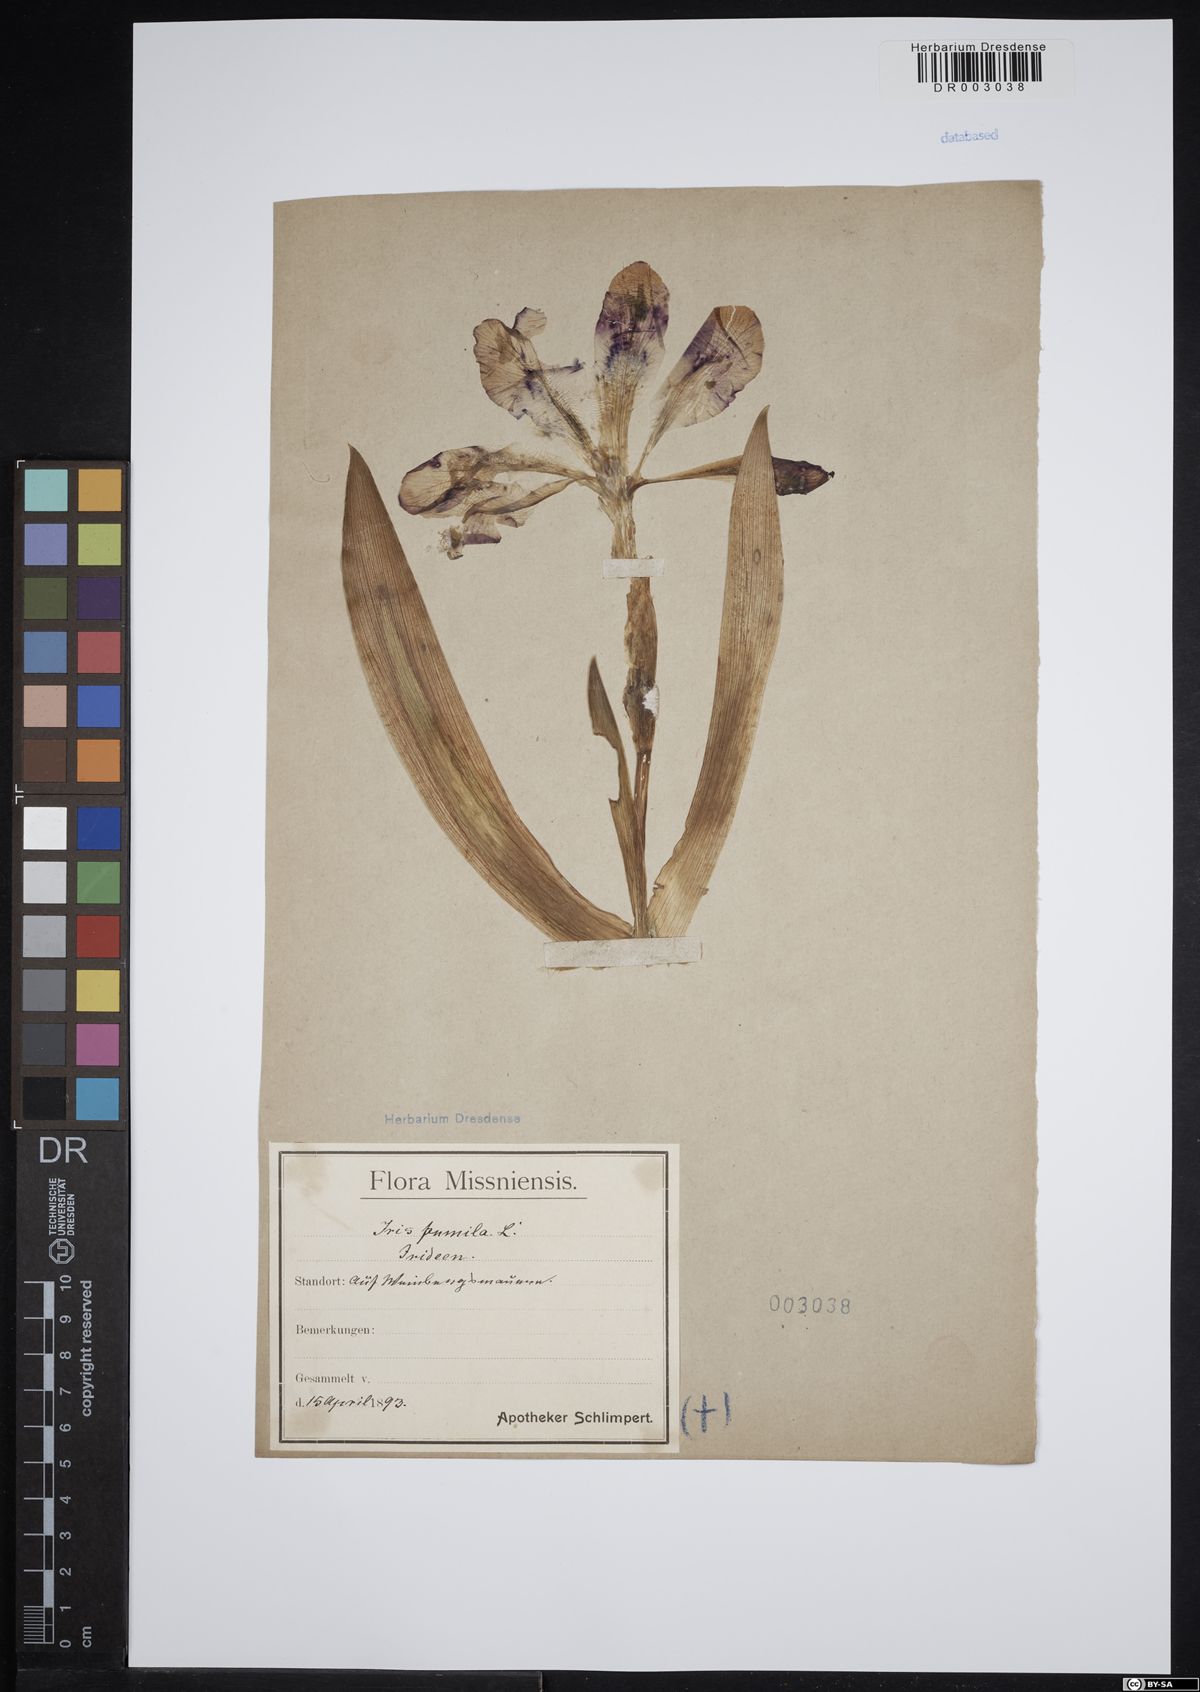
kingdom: Plantae
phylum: Tracheophyta
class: Liliopsida
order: Asparagales
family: Iridaceae
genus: Iris
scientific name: Iris pumila
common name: Dwarf iris
